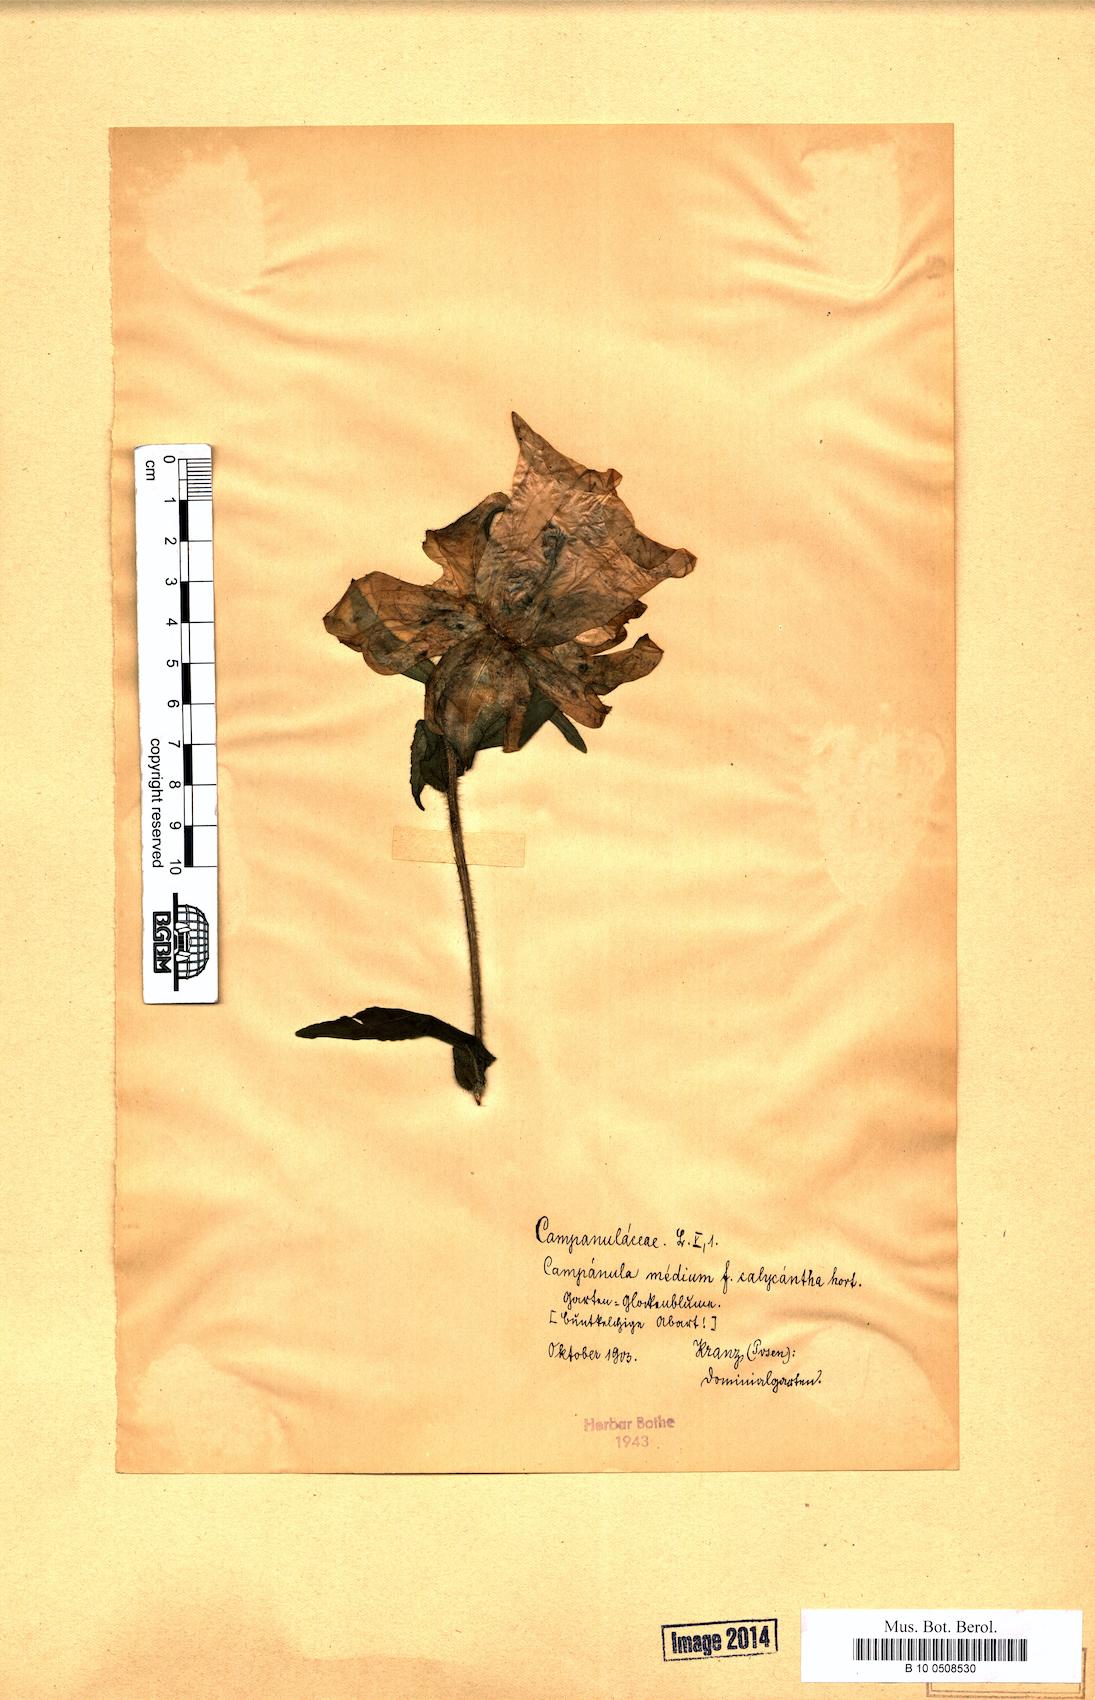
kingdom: Plantae
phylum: Tracheophyta
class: Magnoliopsida
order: Asterales
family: Campanulaceae
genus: Campanula
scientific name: Campanula medium
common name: Canterbury bells
